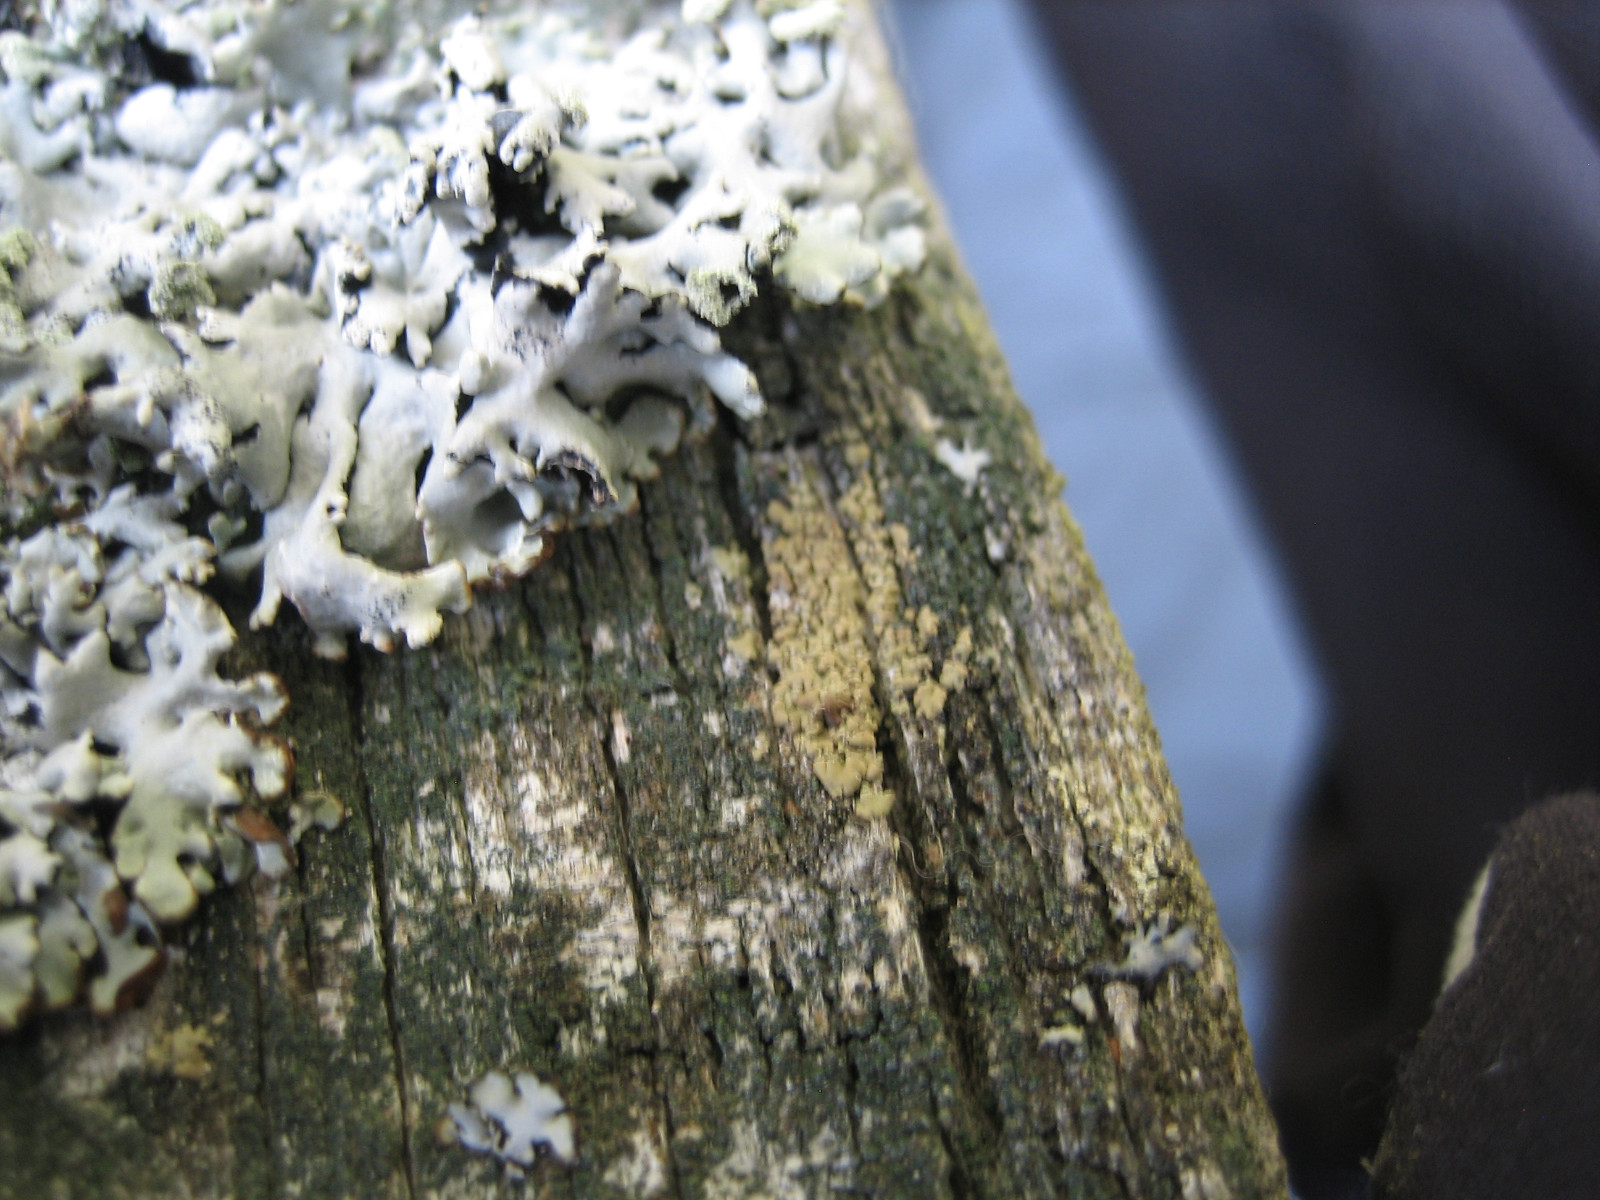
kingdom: Fungi
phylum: Ascomycota
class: Lecanoromycetes
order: Umbilicariales
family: Ophioparmaceae
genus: Hypocenomyce
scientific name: Hypocenomyce scalaris
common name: småskællet muslinglav
